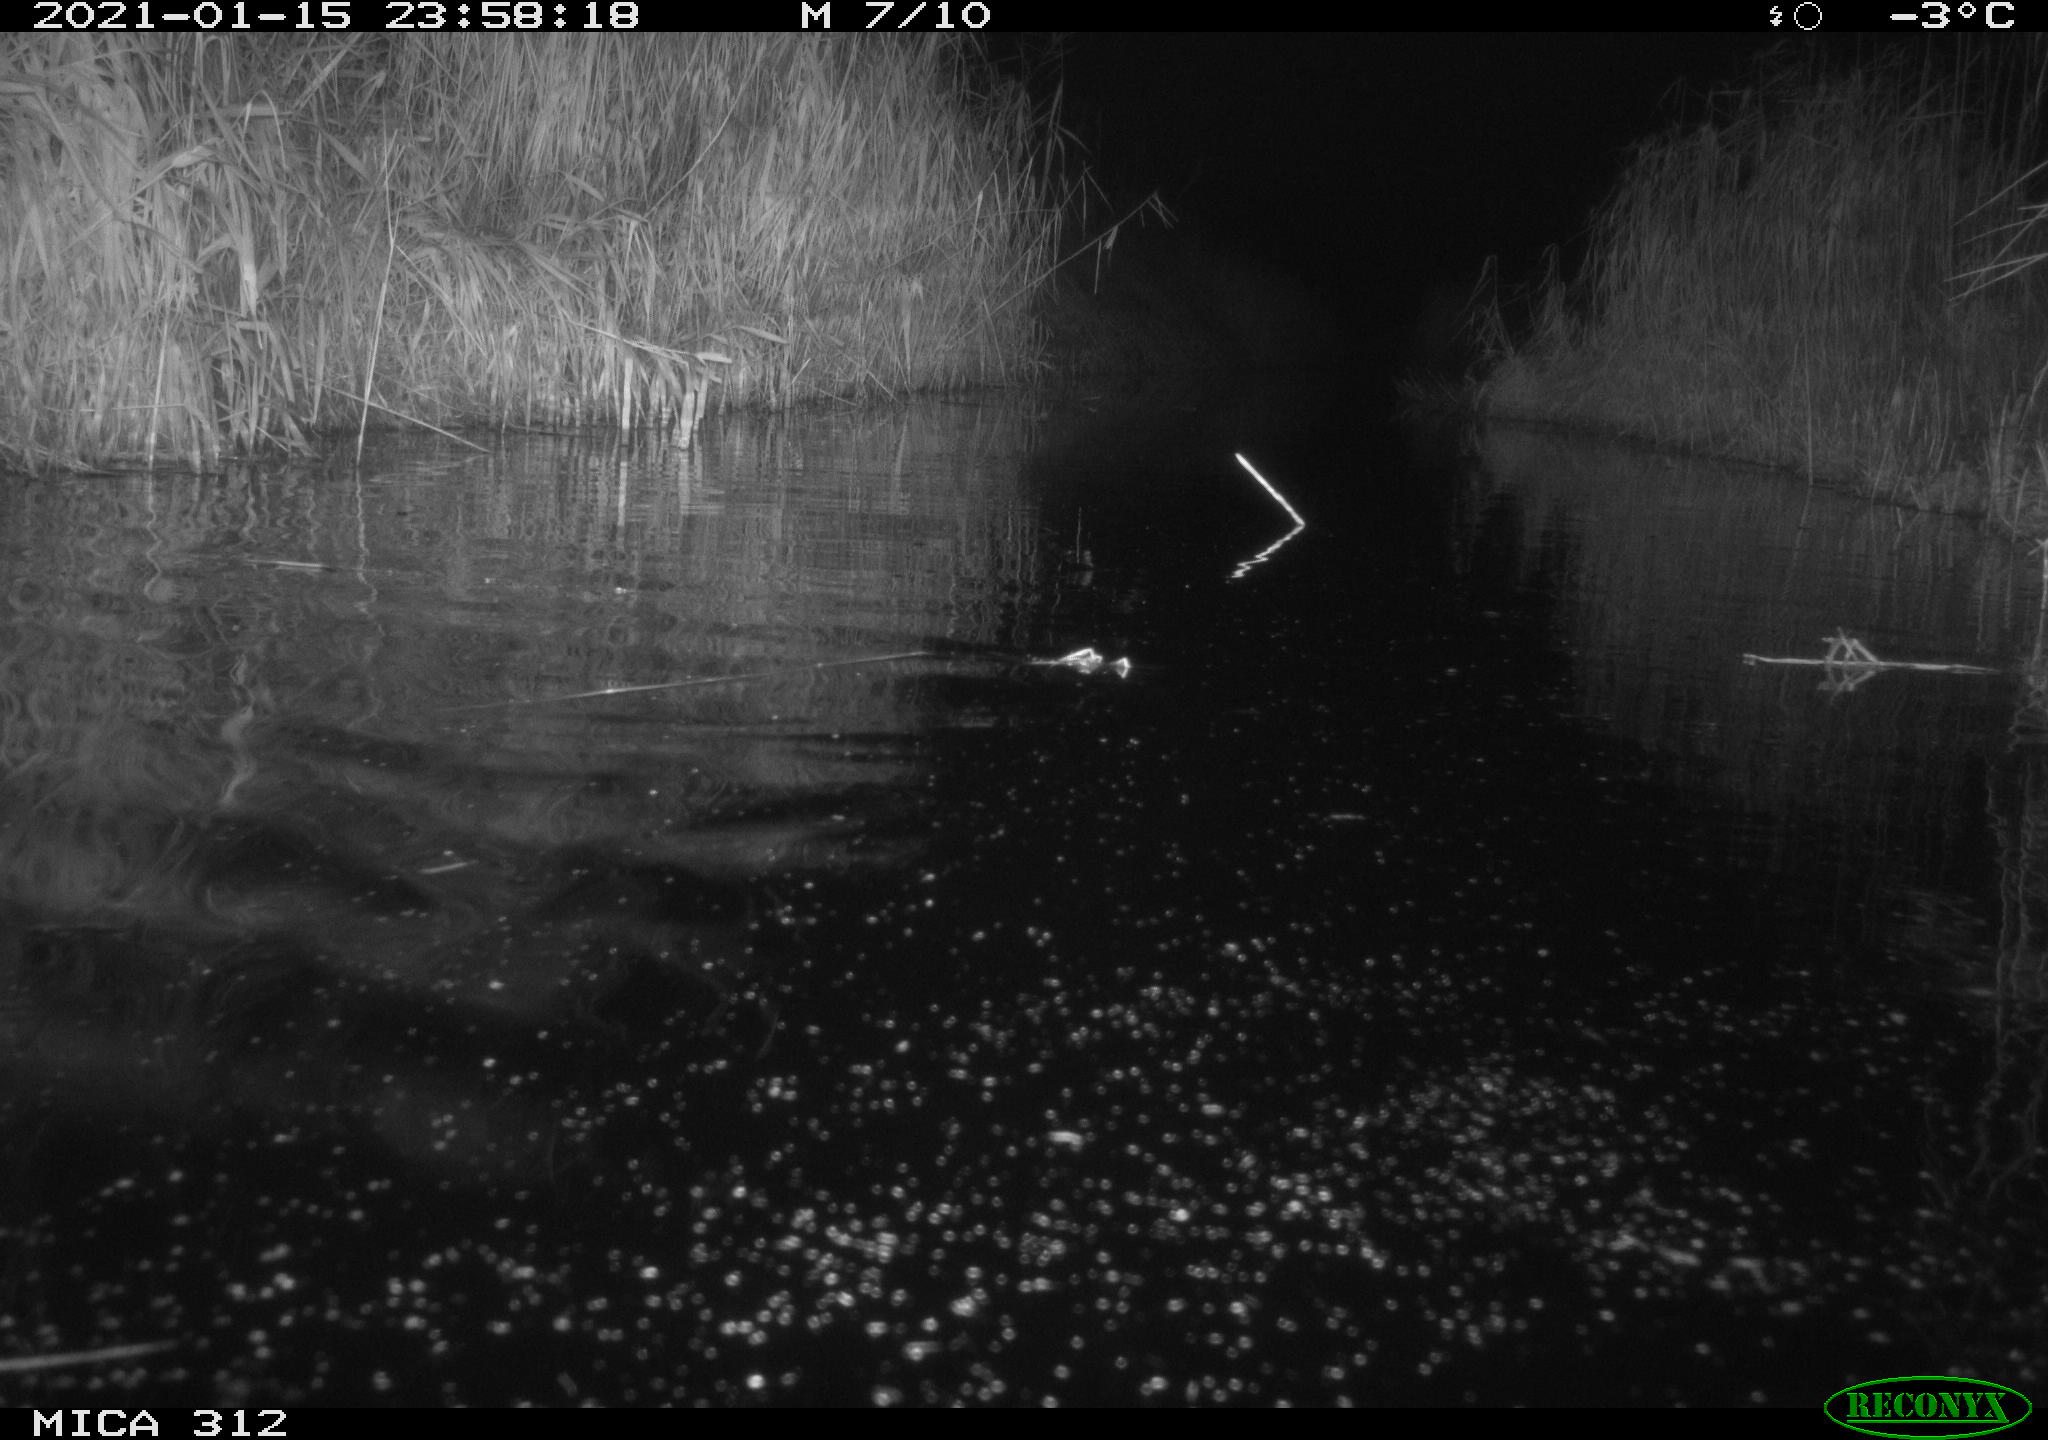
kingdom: Animalia
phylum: Chordata
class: Mammalia
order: Rodentia
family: Cricetidae
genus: Ondatra
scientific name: Ondatra zibethicus
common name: Muskrat
